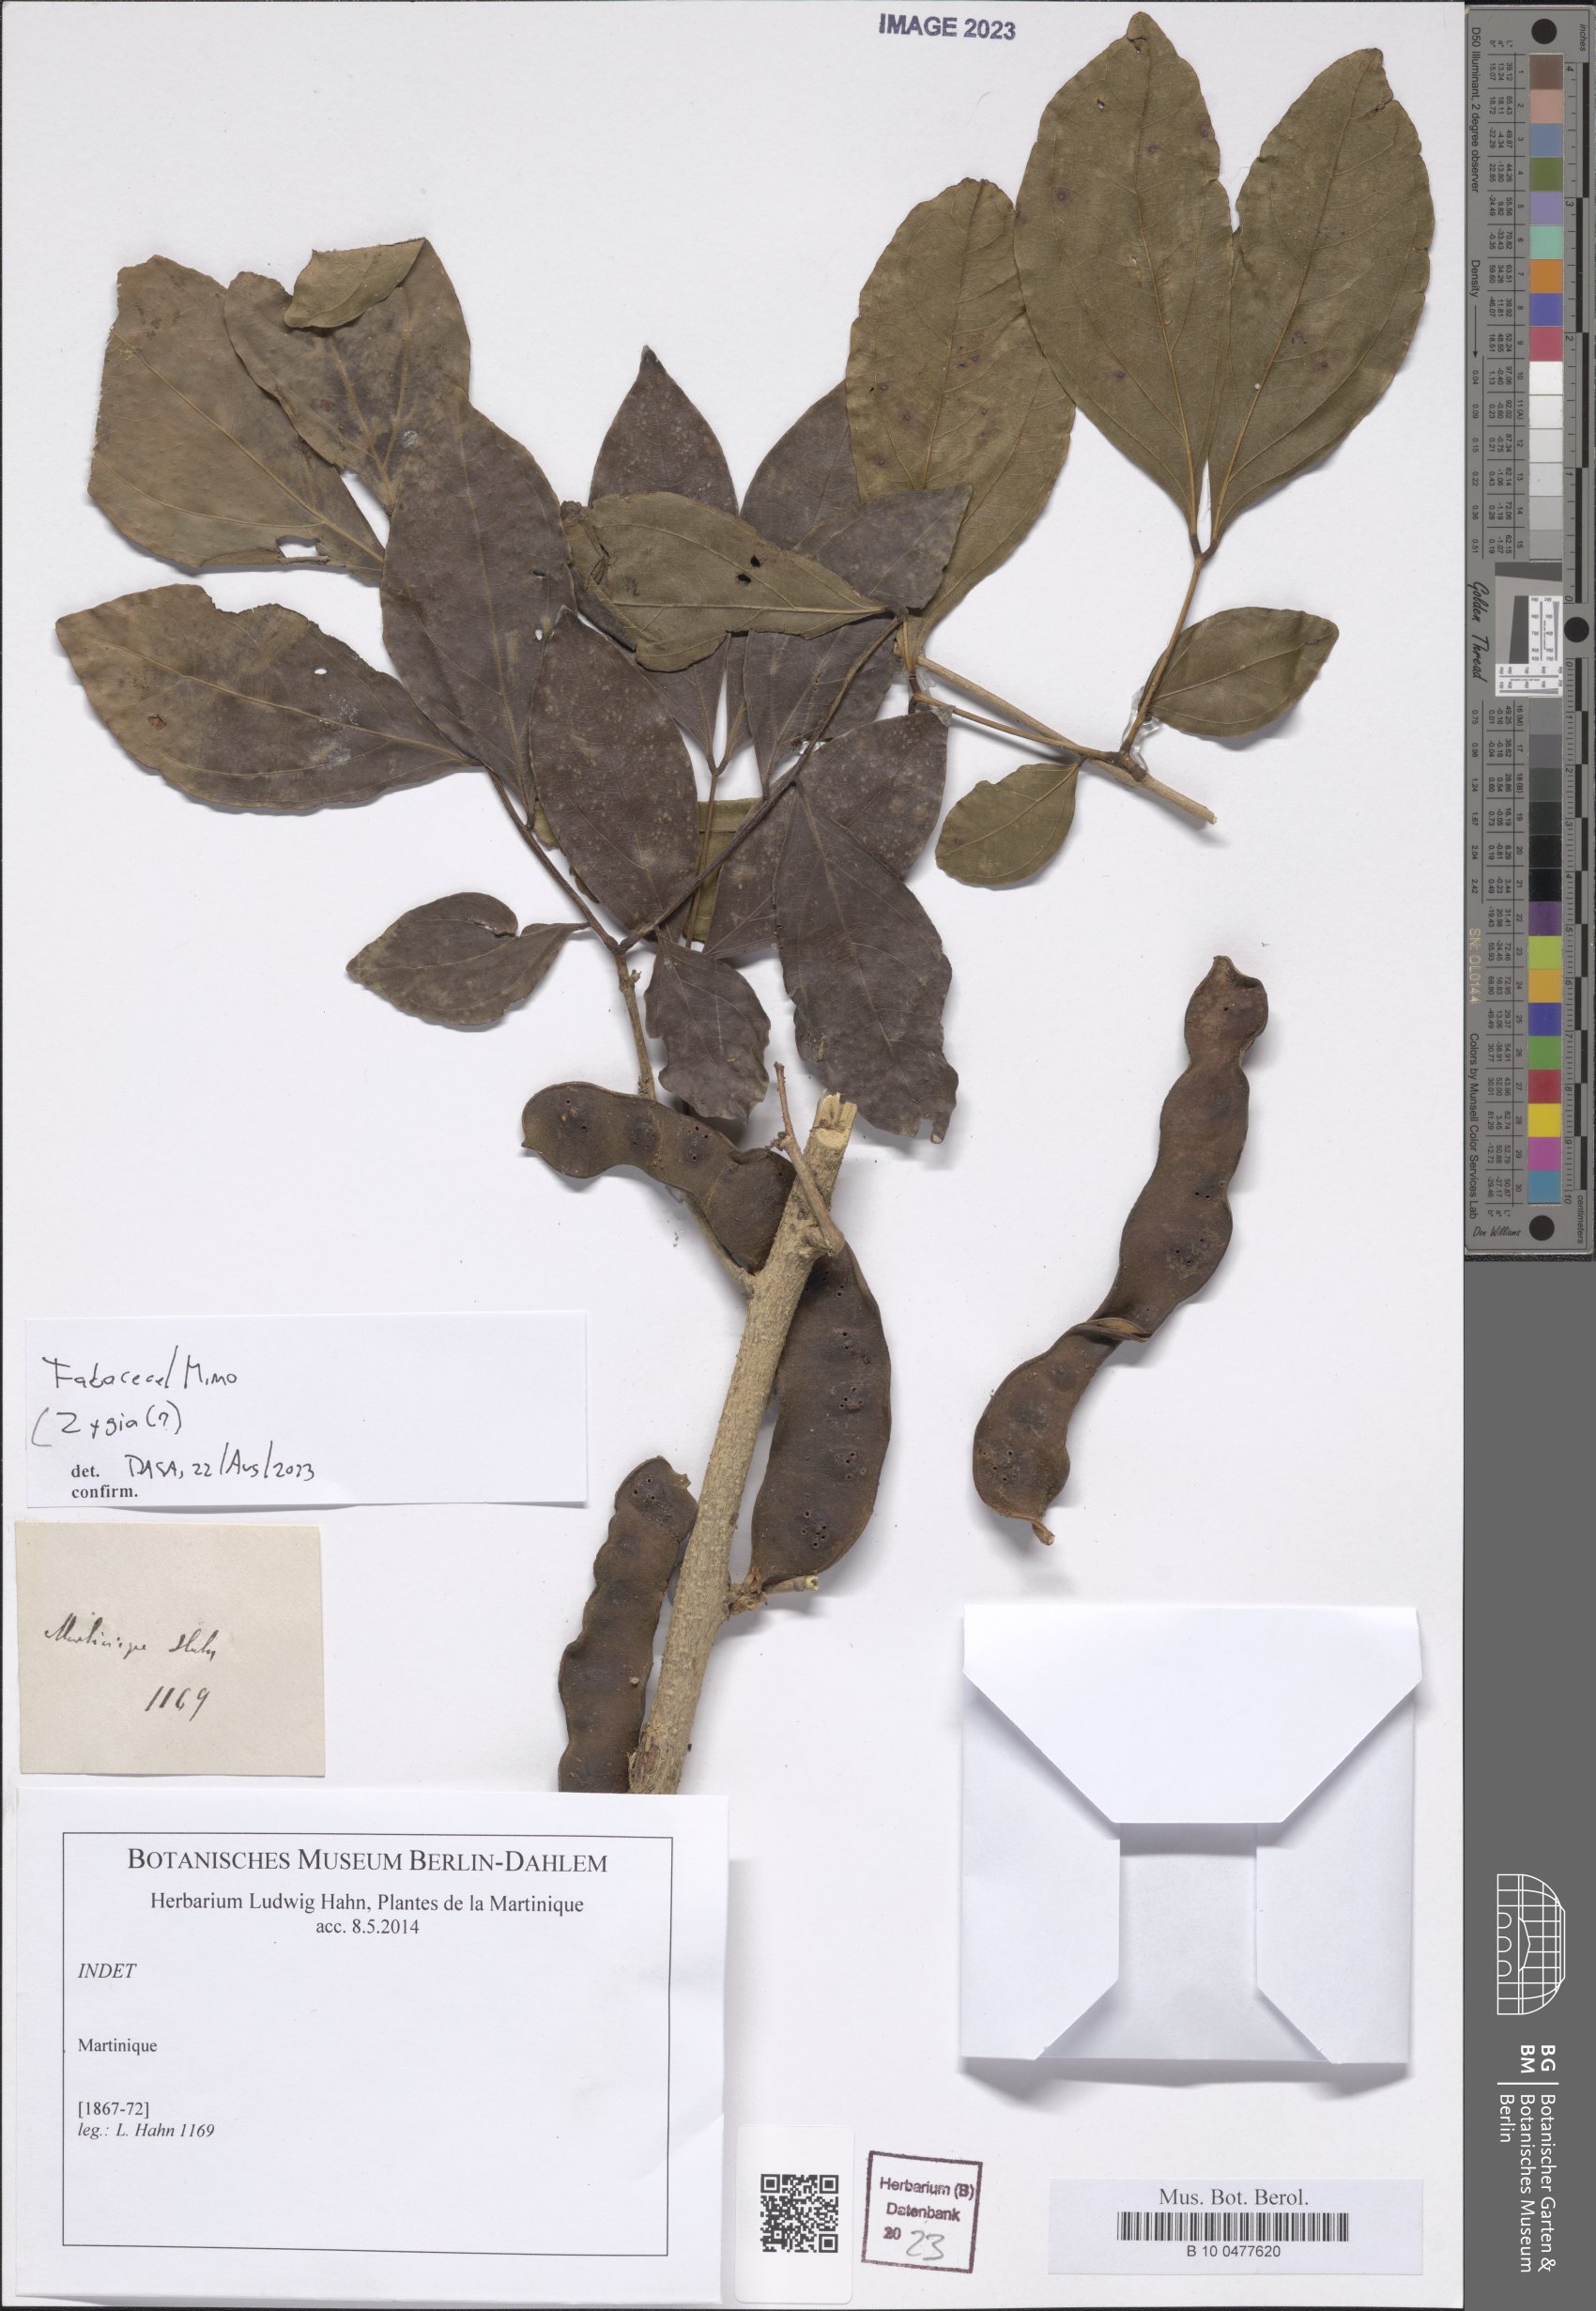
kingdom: Plantae
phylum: Tracheophyta
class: Magnoliopsida
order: Fabales
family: Fabaceae
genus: Zygia
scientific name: Zygia
